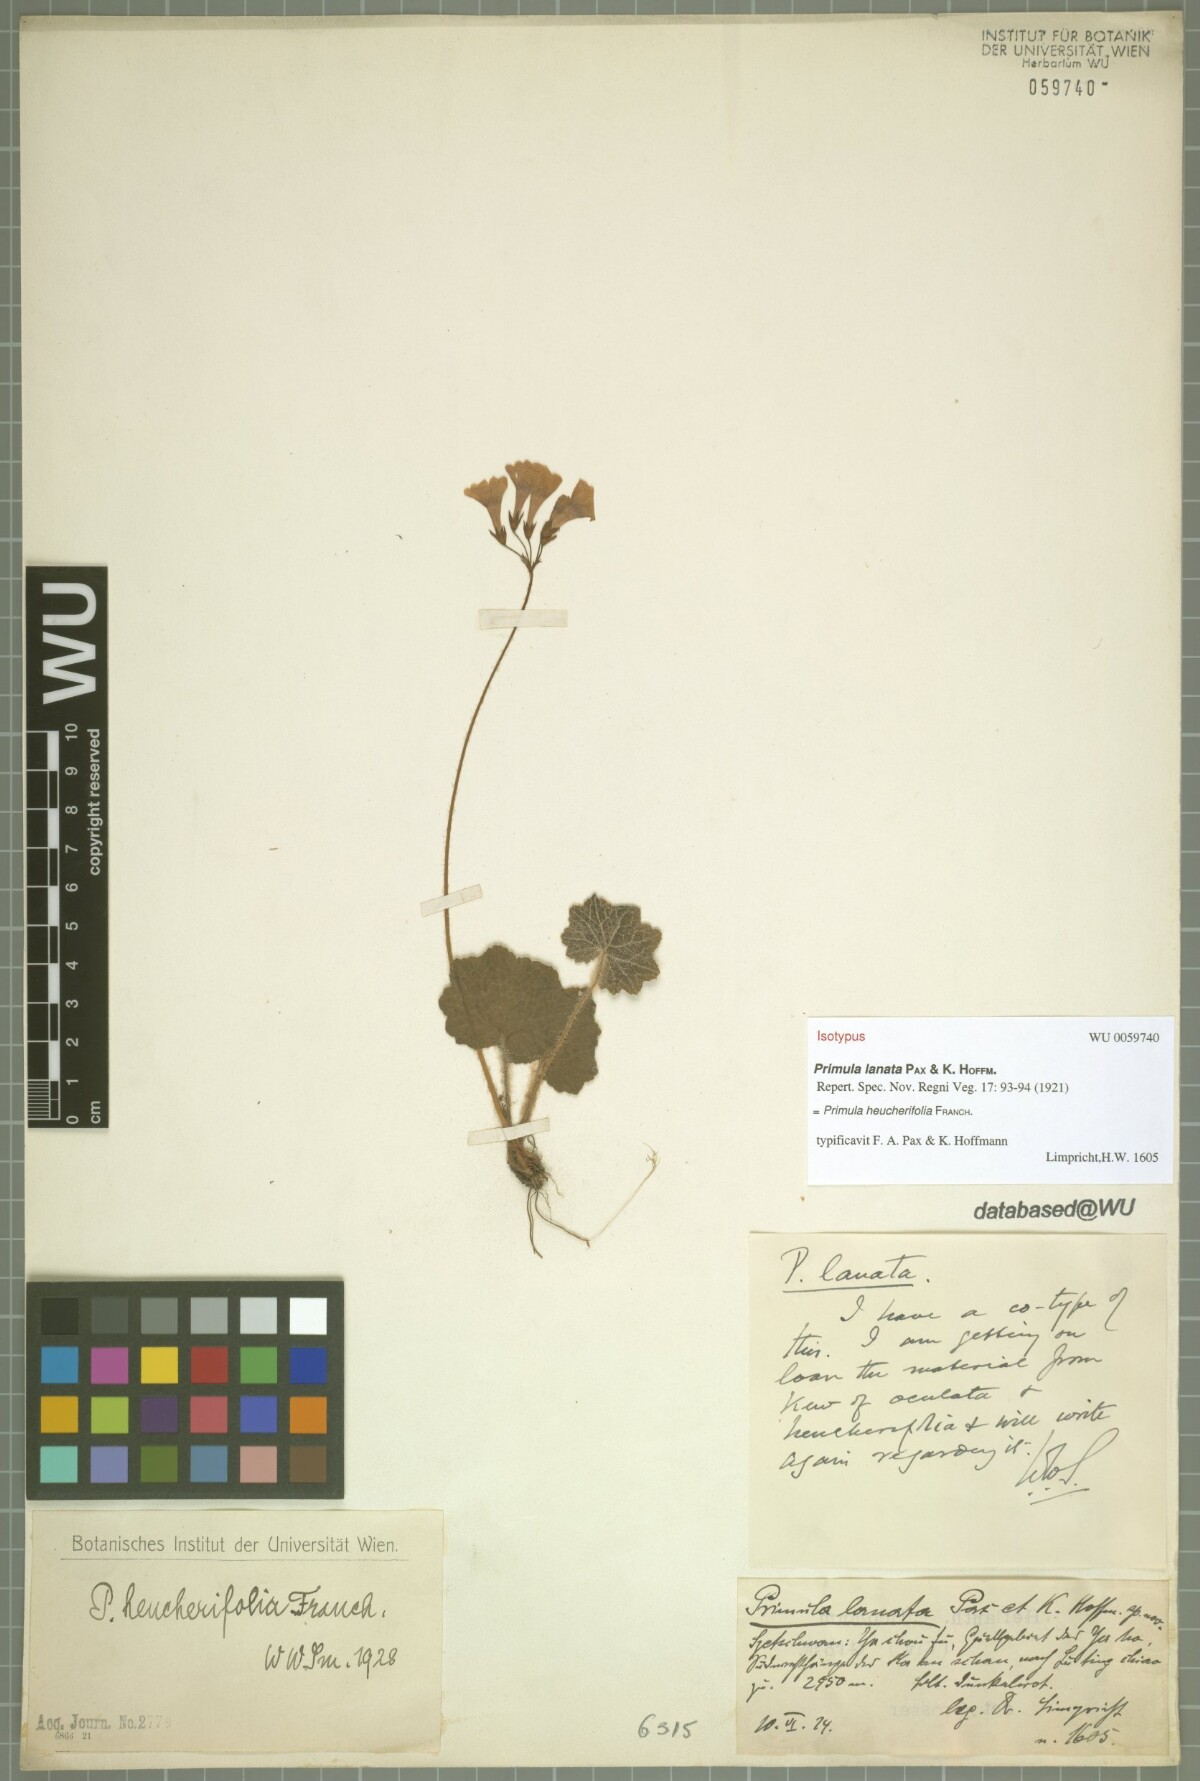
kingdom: Plantae
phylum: Tracheophyta
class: Magnoliopsida
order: Ericales
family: Primulaceae
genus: Primula
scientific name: Primula heucherifolia
